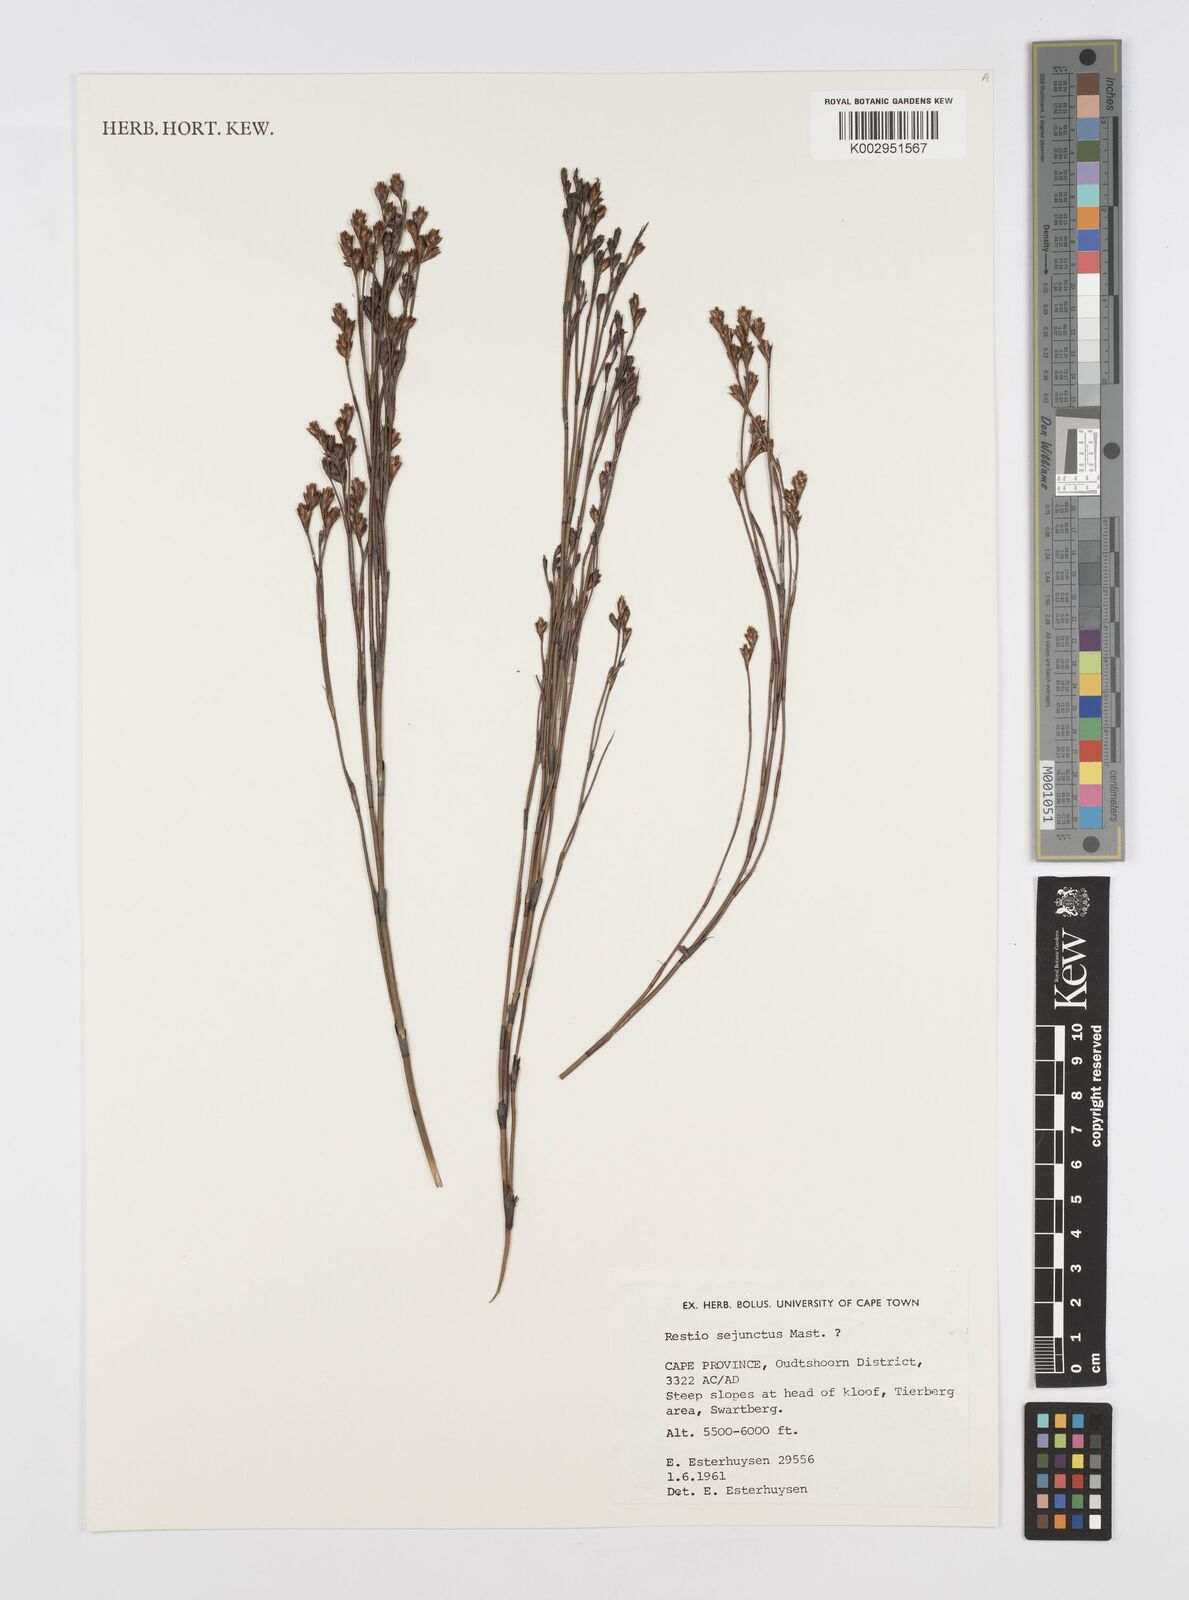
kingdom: Plantae
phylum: Tracheophyta
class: Liliopsida
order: Poales
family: Restionaceae
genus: Restio
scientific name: Restio sejunctus
